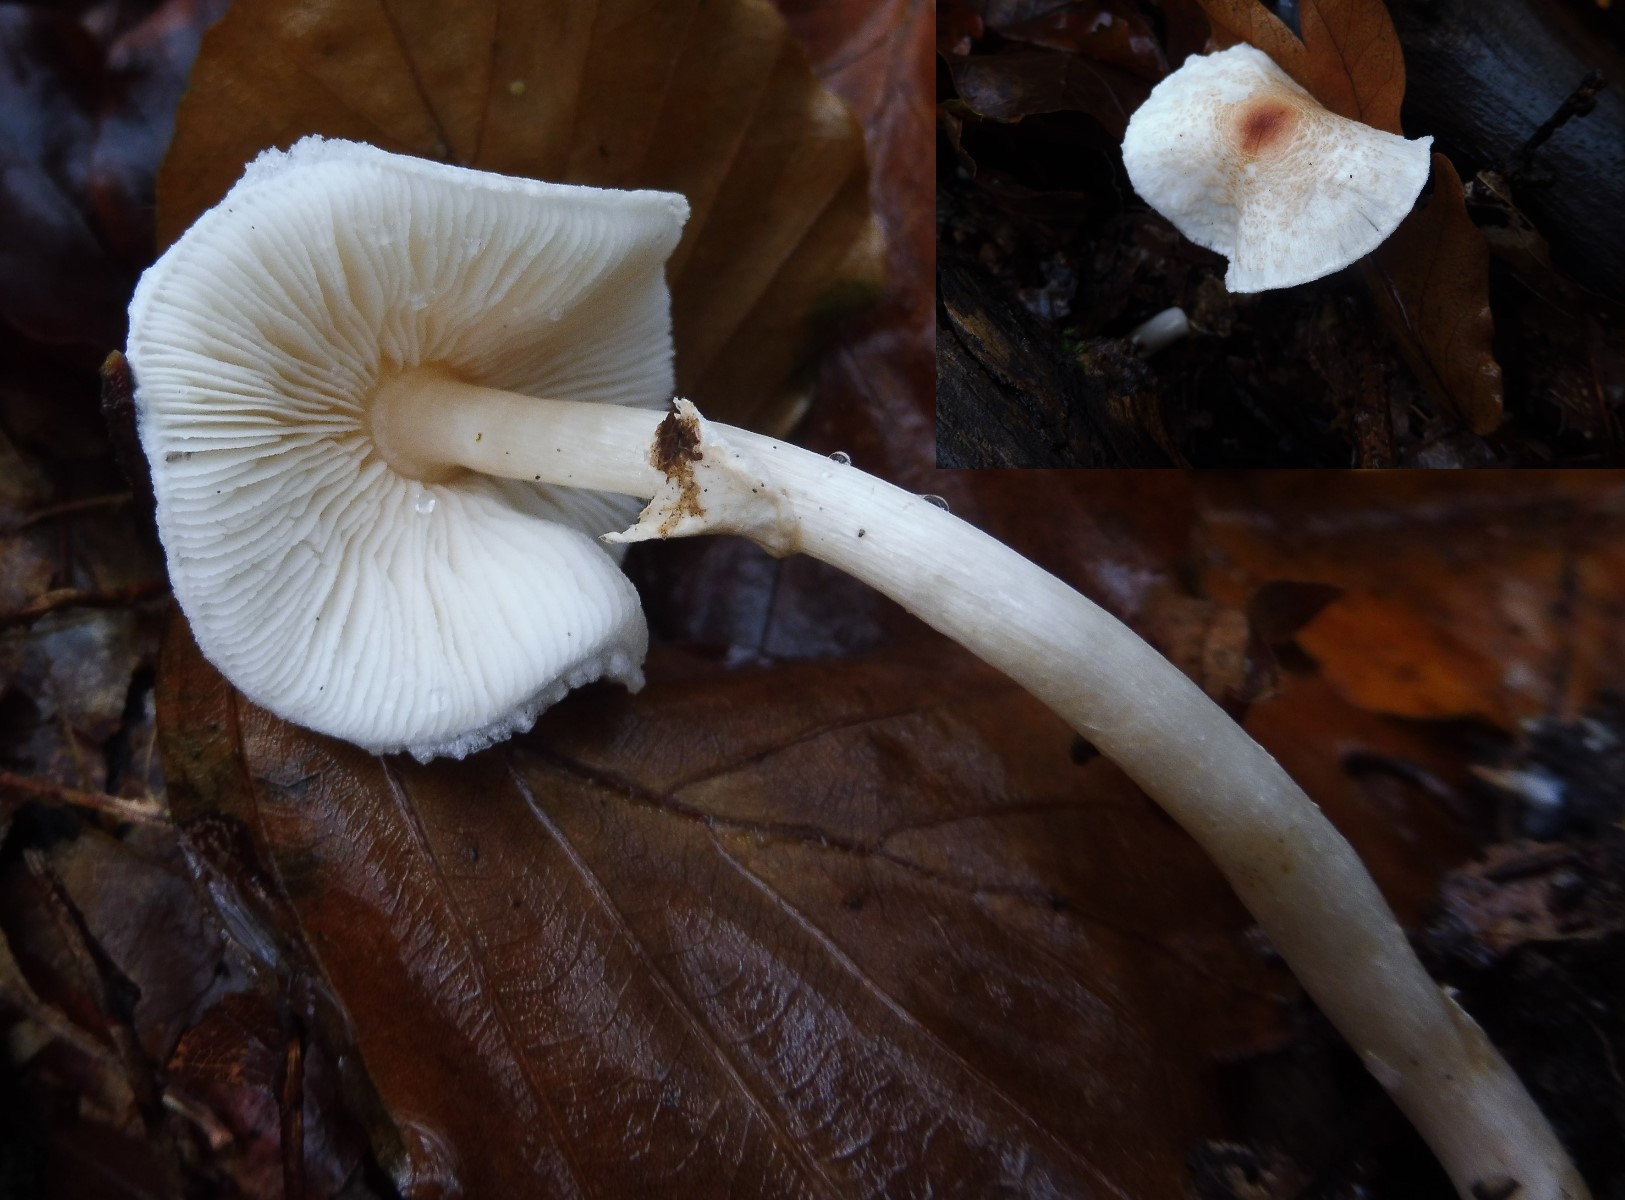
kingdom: Fungi
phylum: Basidiomycota
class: Agaricomycetes
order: Agaricales
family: Agaricaceae
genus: Lepiota
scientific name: Lepiota cristata
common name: stinkende parasolhat
